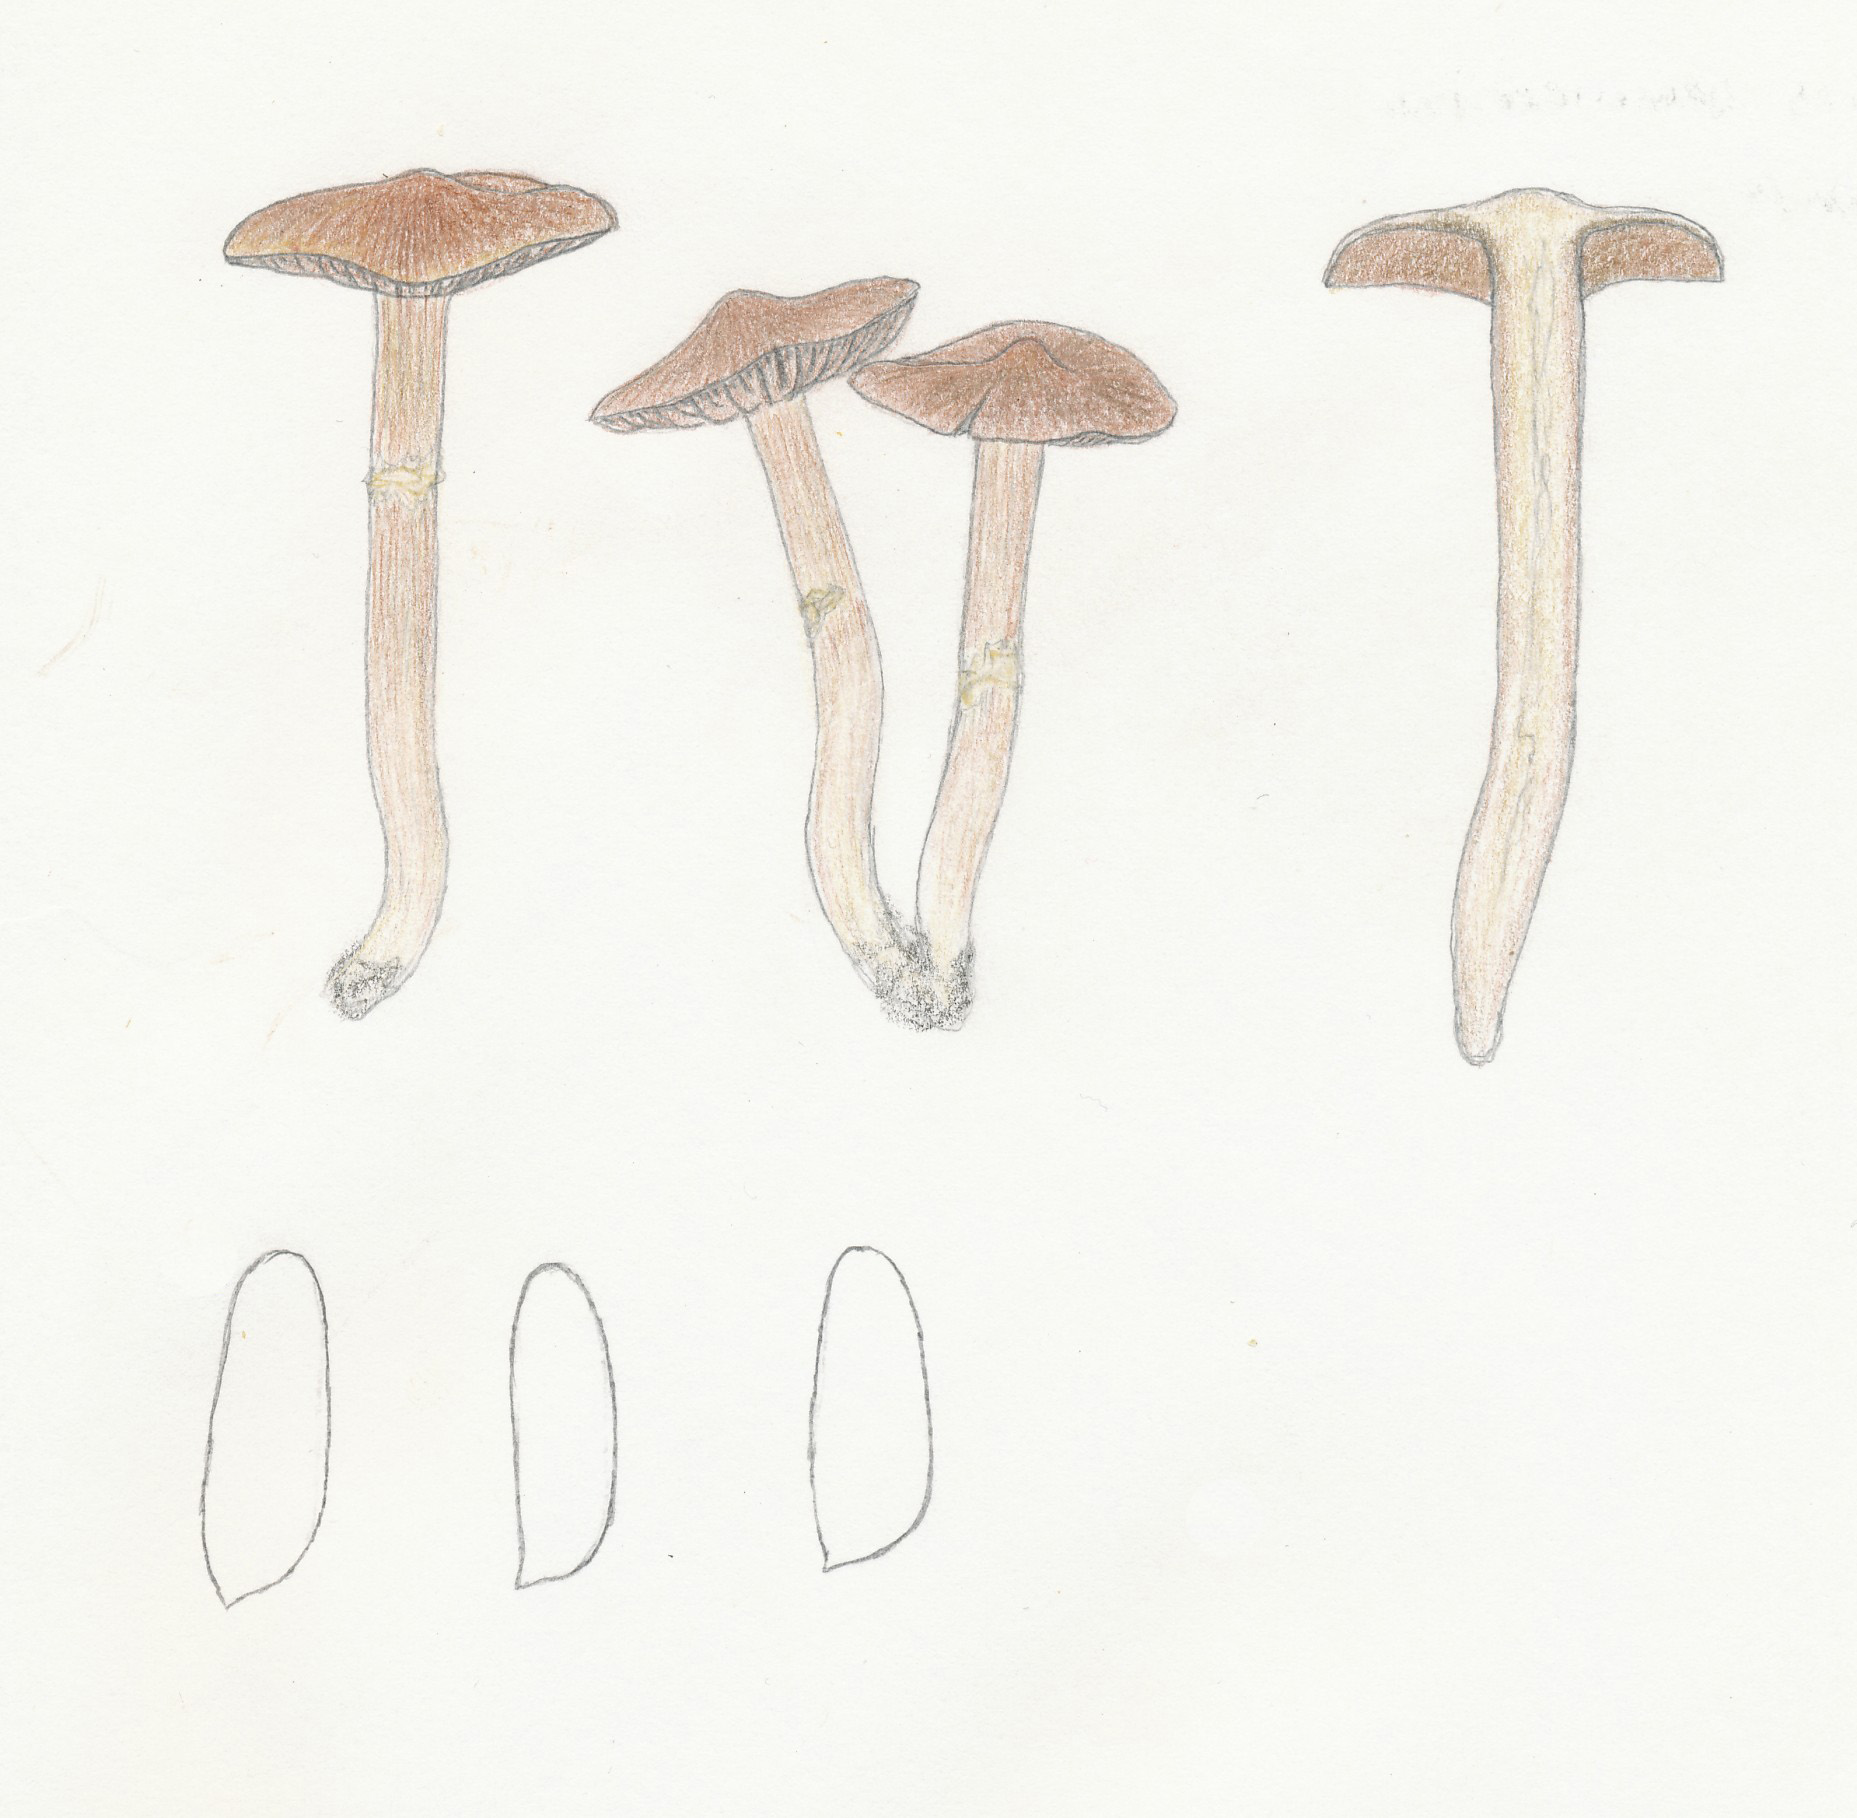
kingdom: Fungi
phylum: Basidiomycota
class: Agaricomycetes
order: Agaricales
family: Cortinariaceae
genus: Cortinarius
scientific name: Cortinarius fusisporus
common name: brunfnugget slørhat
